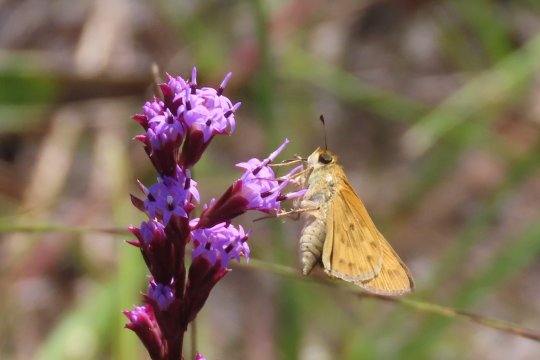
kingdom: Animalia
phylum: Arthropoda
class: Insecta
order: Lepidoptera
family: Hesperiidae
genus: Hylephila
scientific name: Hylephila phyleus
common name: Fiery Skipper
